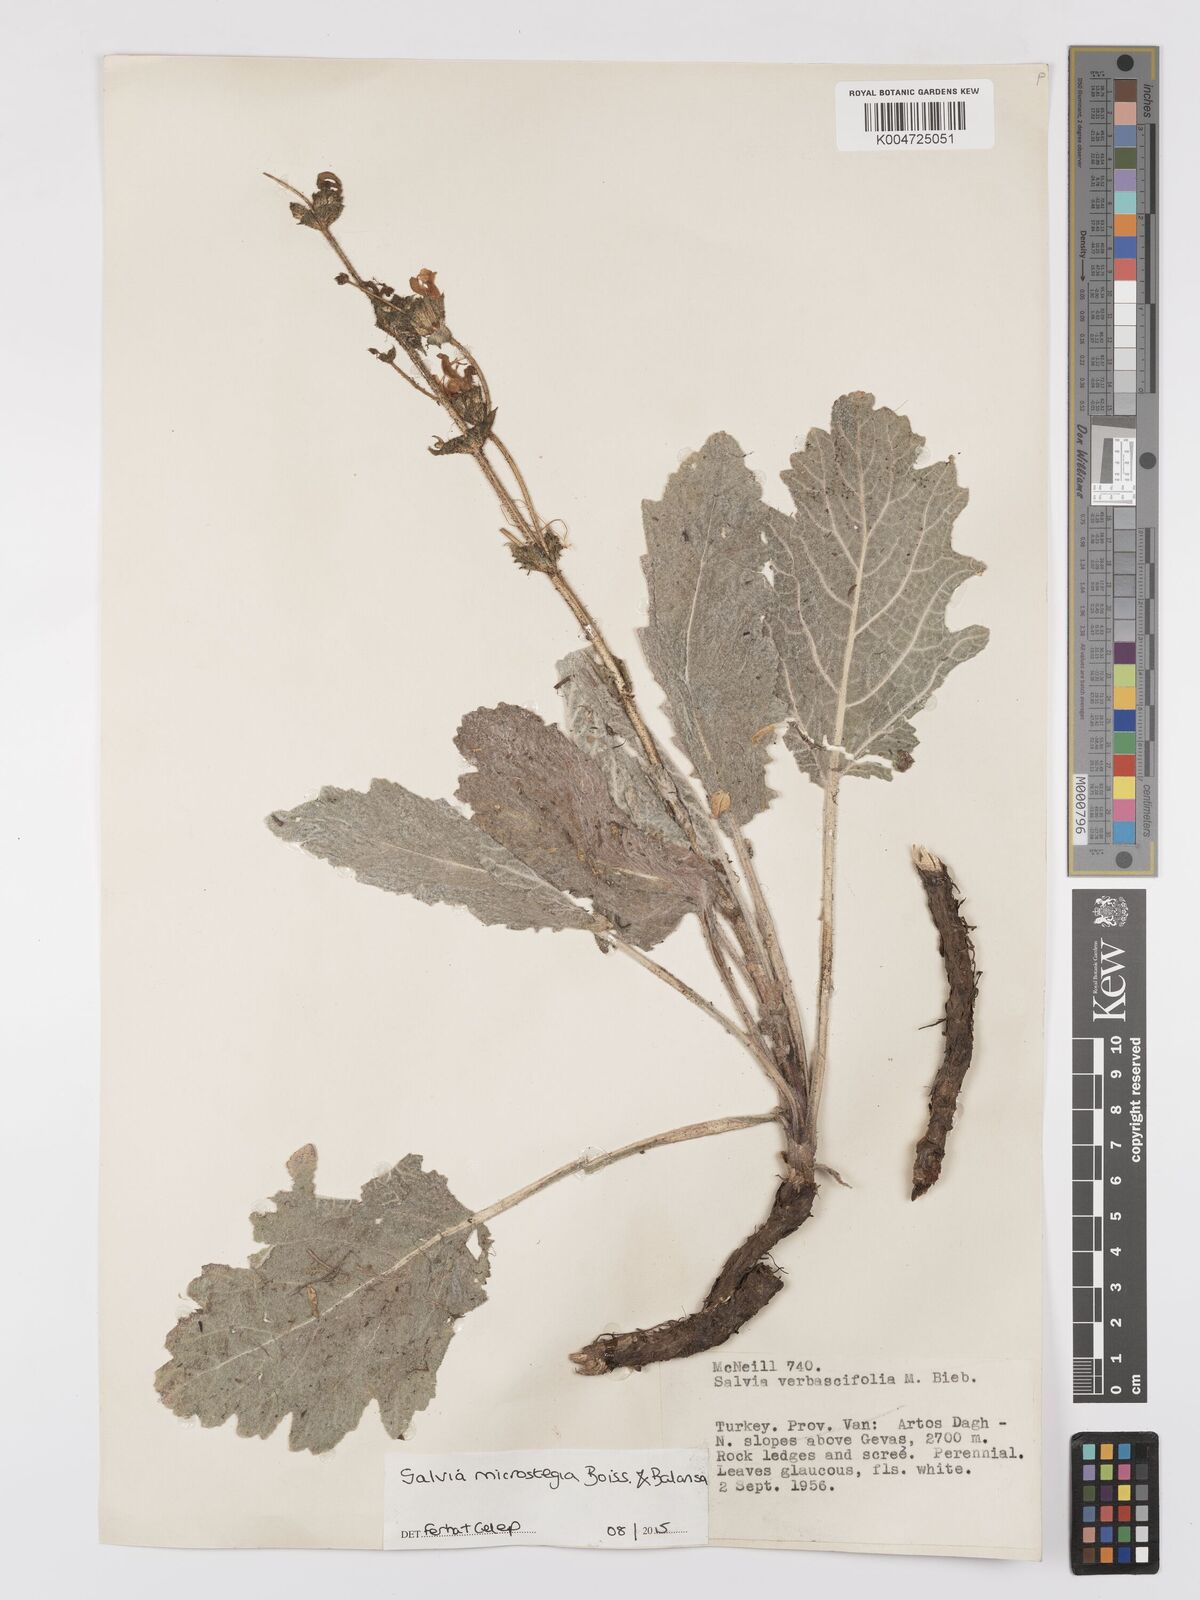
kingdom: Plantae
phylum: Tracheophyta
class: Magnoliopsida
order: Lamiales
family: Lamiaceae
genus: Salvia
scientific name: Salvia microstegia
